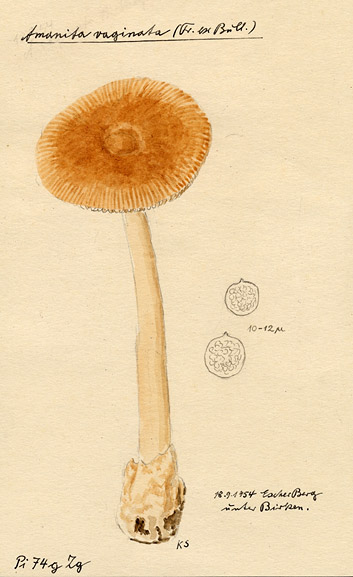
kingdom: Fungi
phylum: Basidiomycota
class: Agaricomycetes
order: Agaricales
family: Amanitaceae
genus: Amanita
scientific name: Amanita fulva
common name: Tawny grisette
